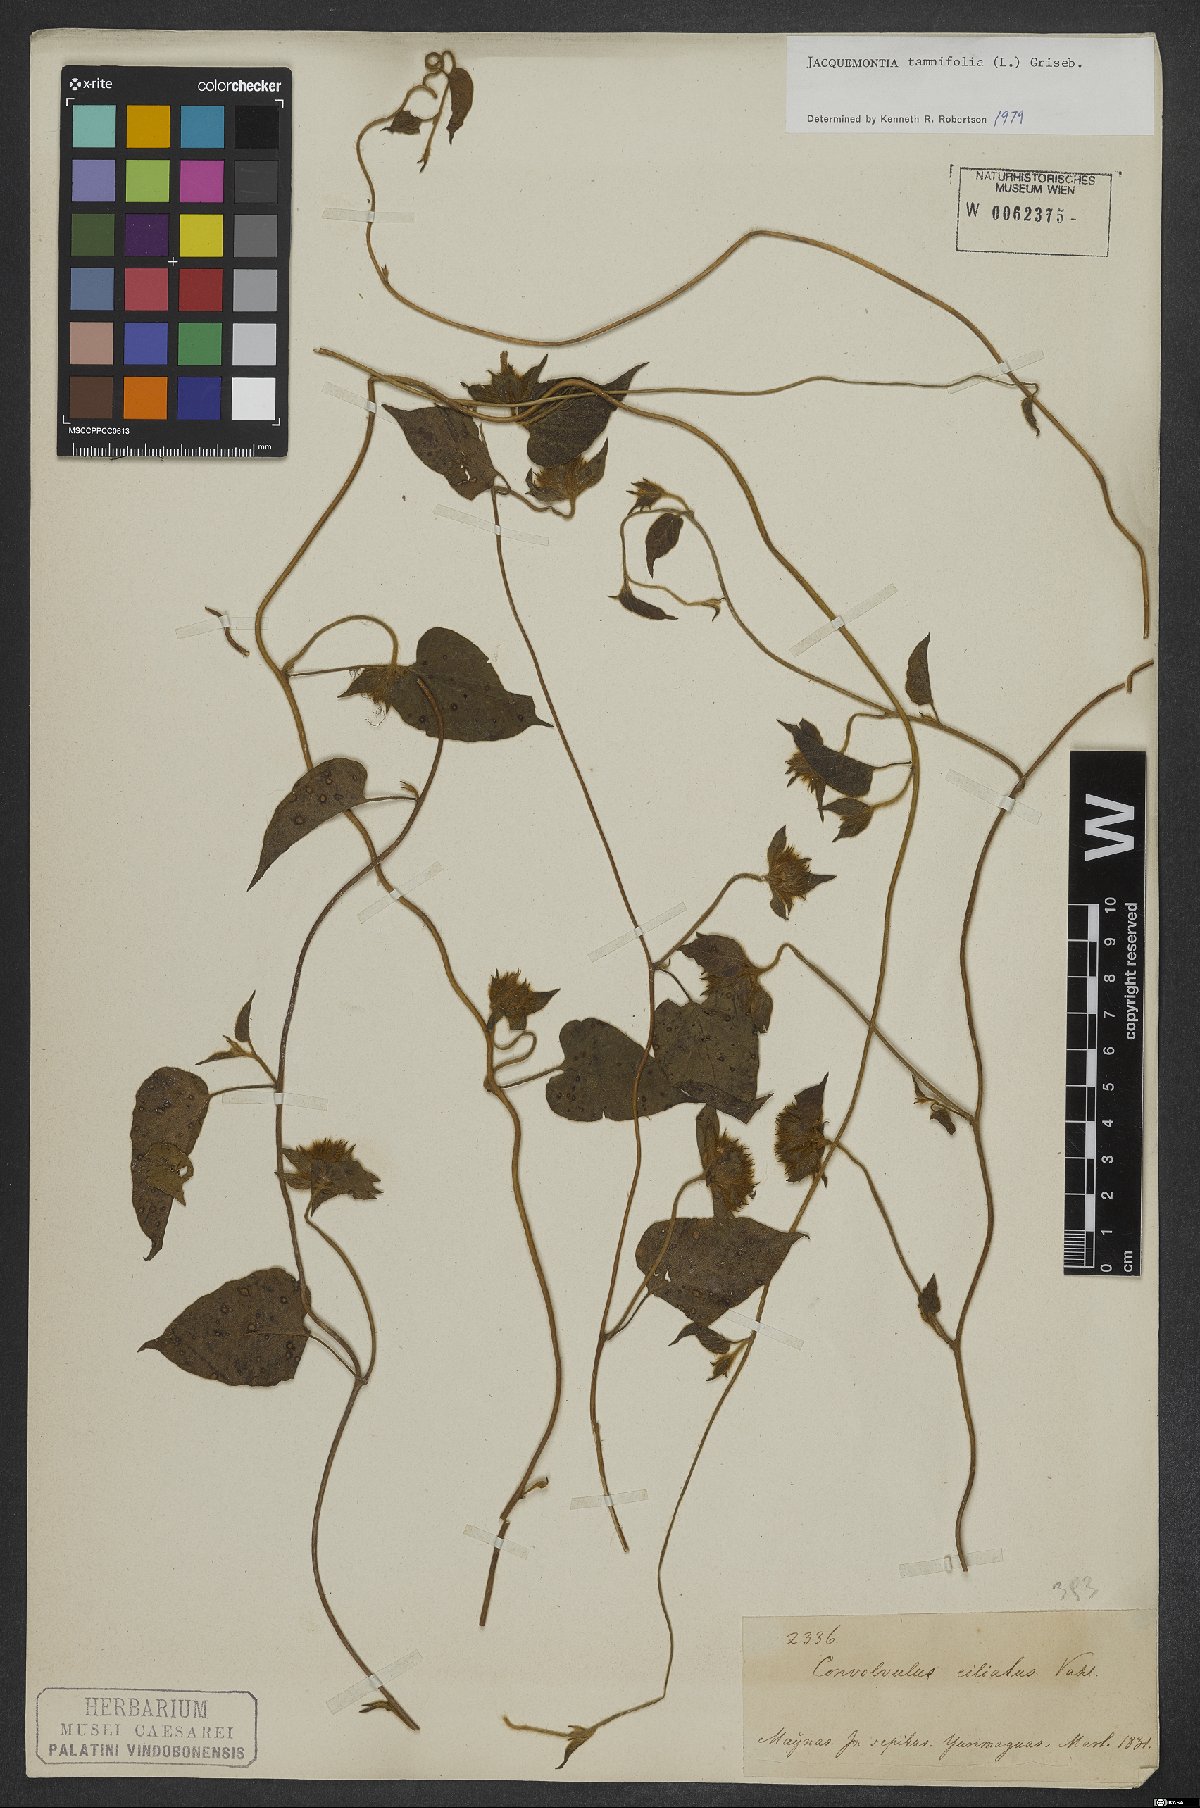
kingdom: Plantae
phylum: Tracheophyta
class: Magnoliopsida
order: Solanales
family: Convolvulaceae
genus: Jacquemontia
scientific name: Jacquemontia tamnifolia
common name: Hairy clustervine
